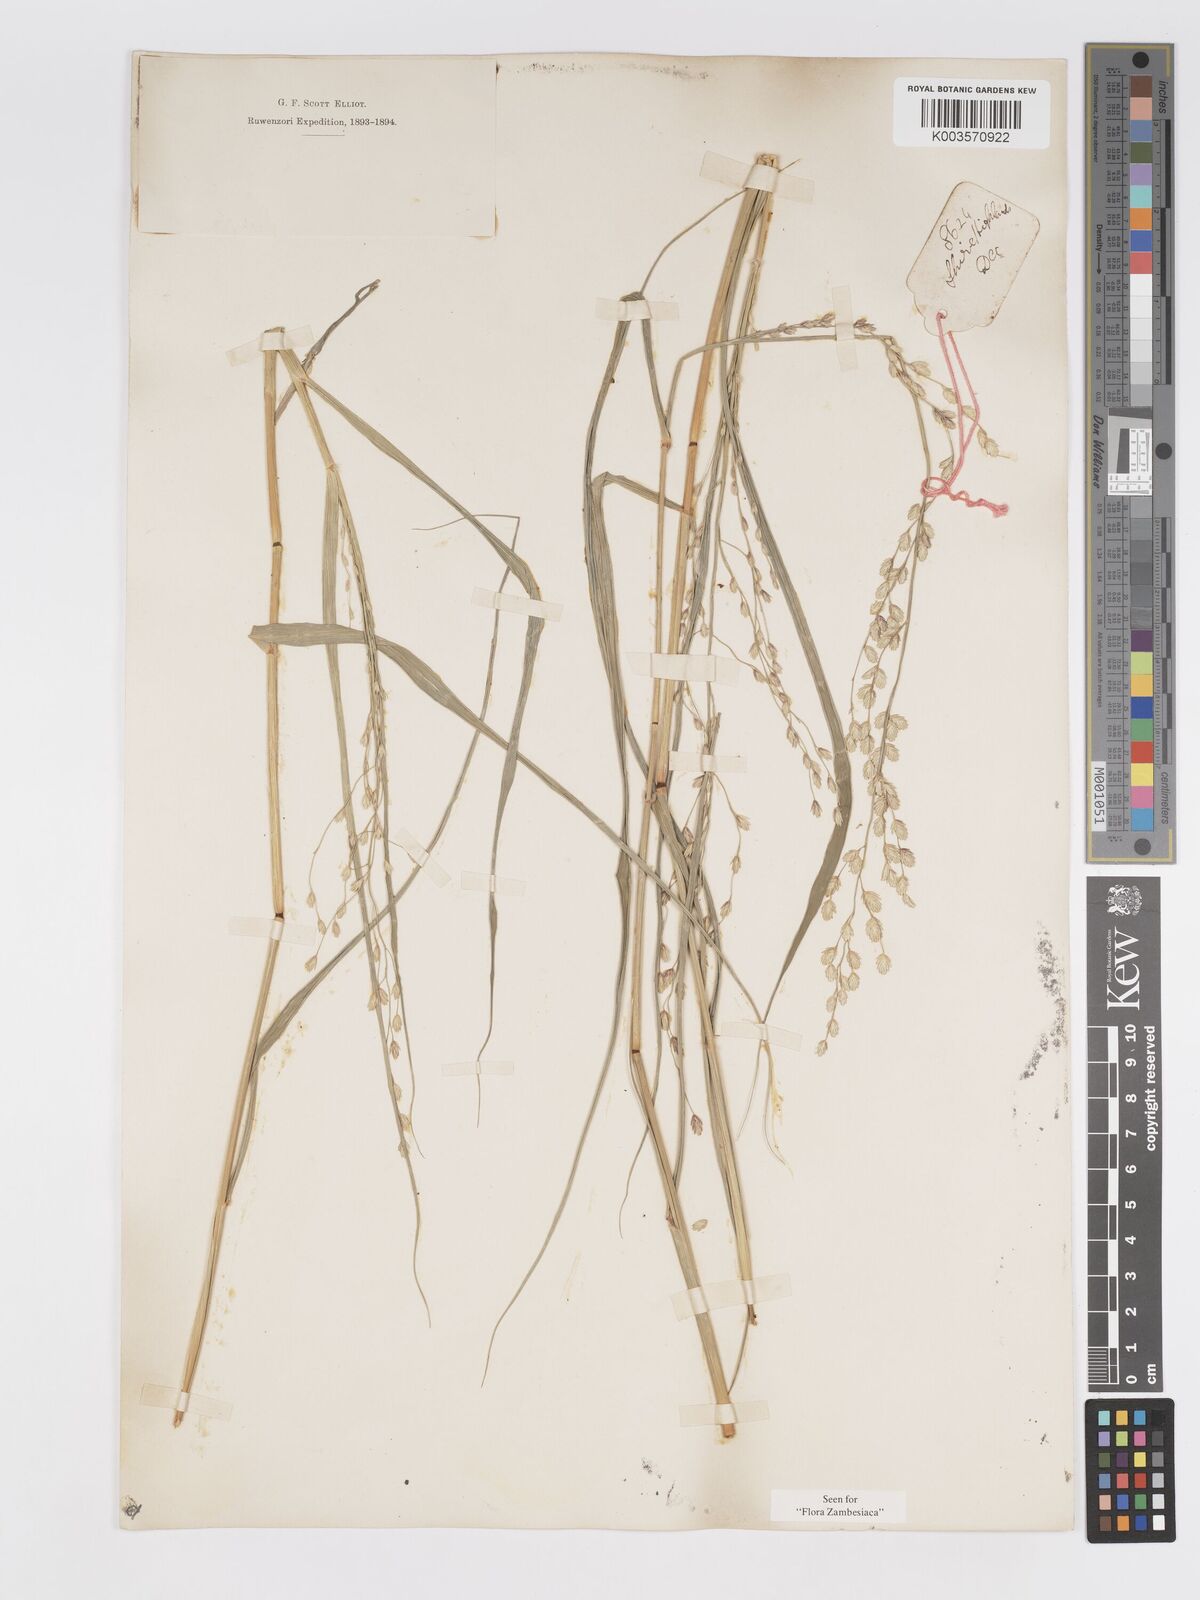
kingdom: Plantae
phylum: Tracheophyta
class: Liliopsida
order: Poales
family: Poaceae
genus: Eragrostis
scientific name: Eragrostis superba
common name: Wilman lovegrass
